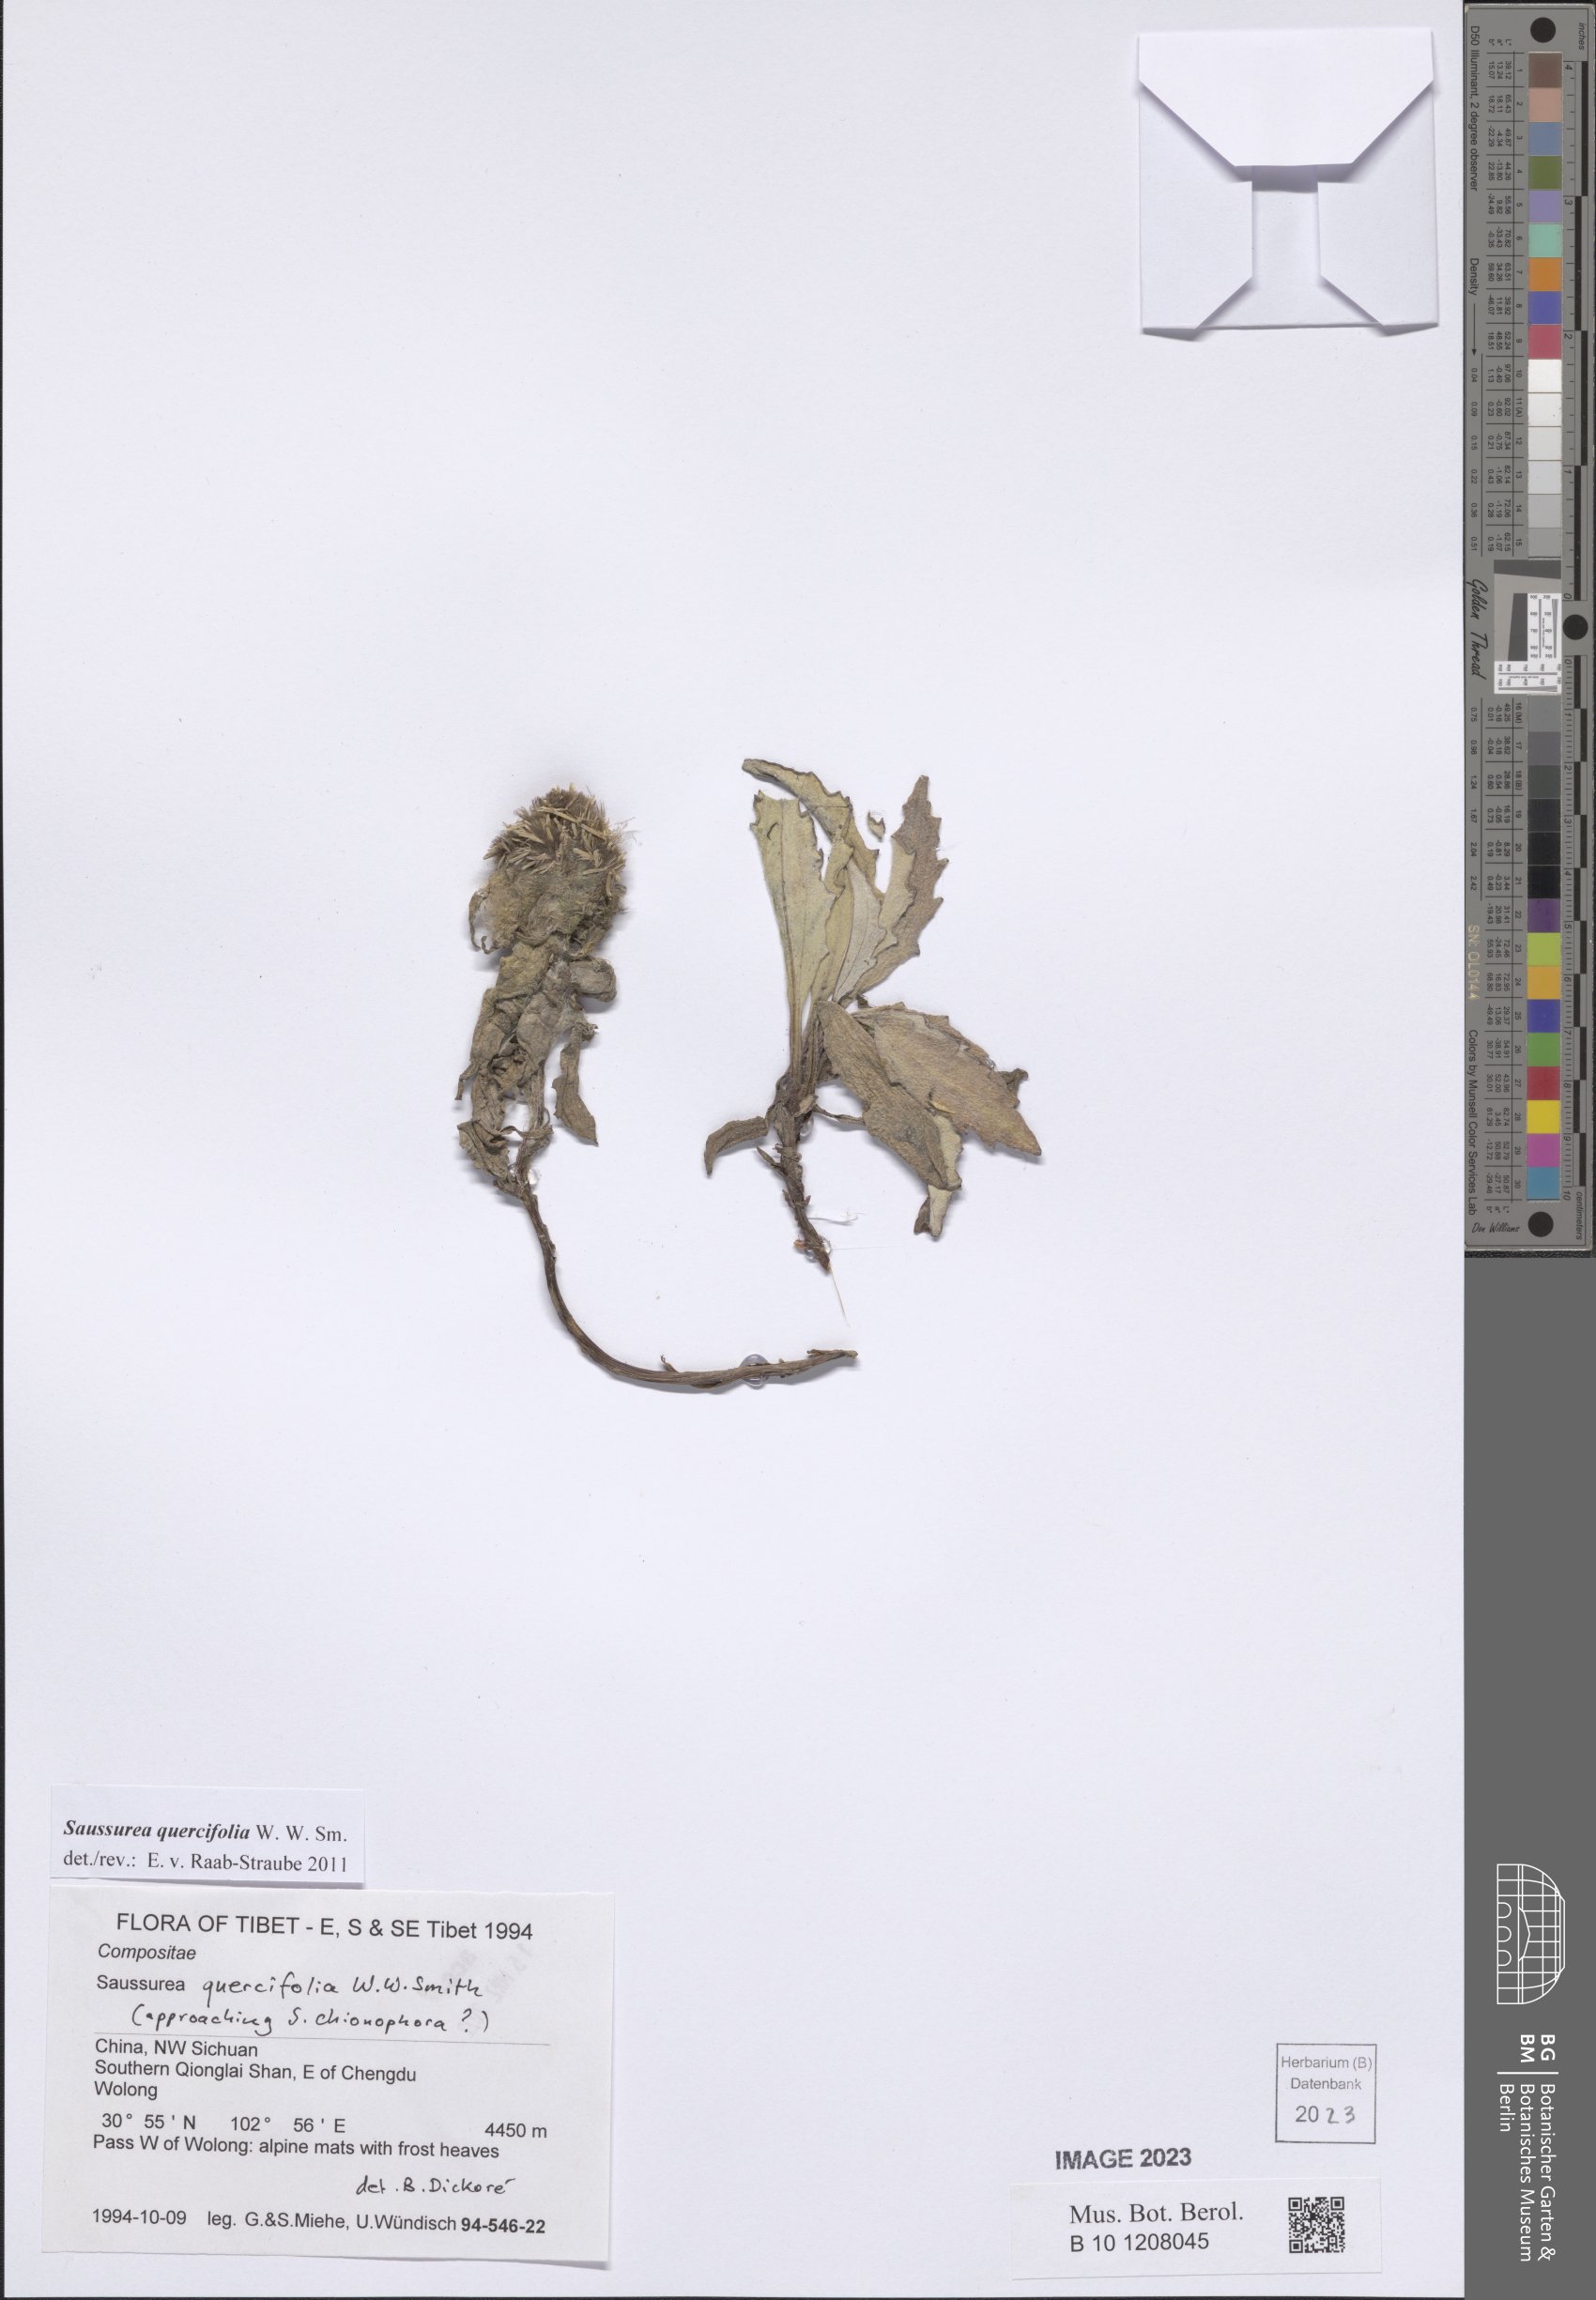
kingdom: Plantae
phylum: Tracheophyta
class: Magnoliopsida
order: Asterales
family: Asteraceae
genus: Saussurea
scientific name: Saussurea quercifolia
